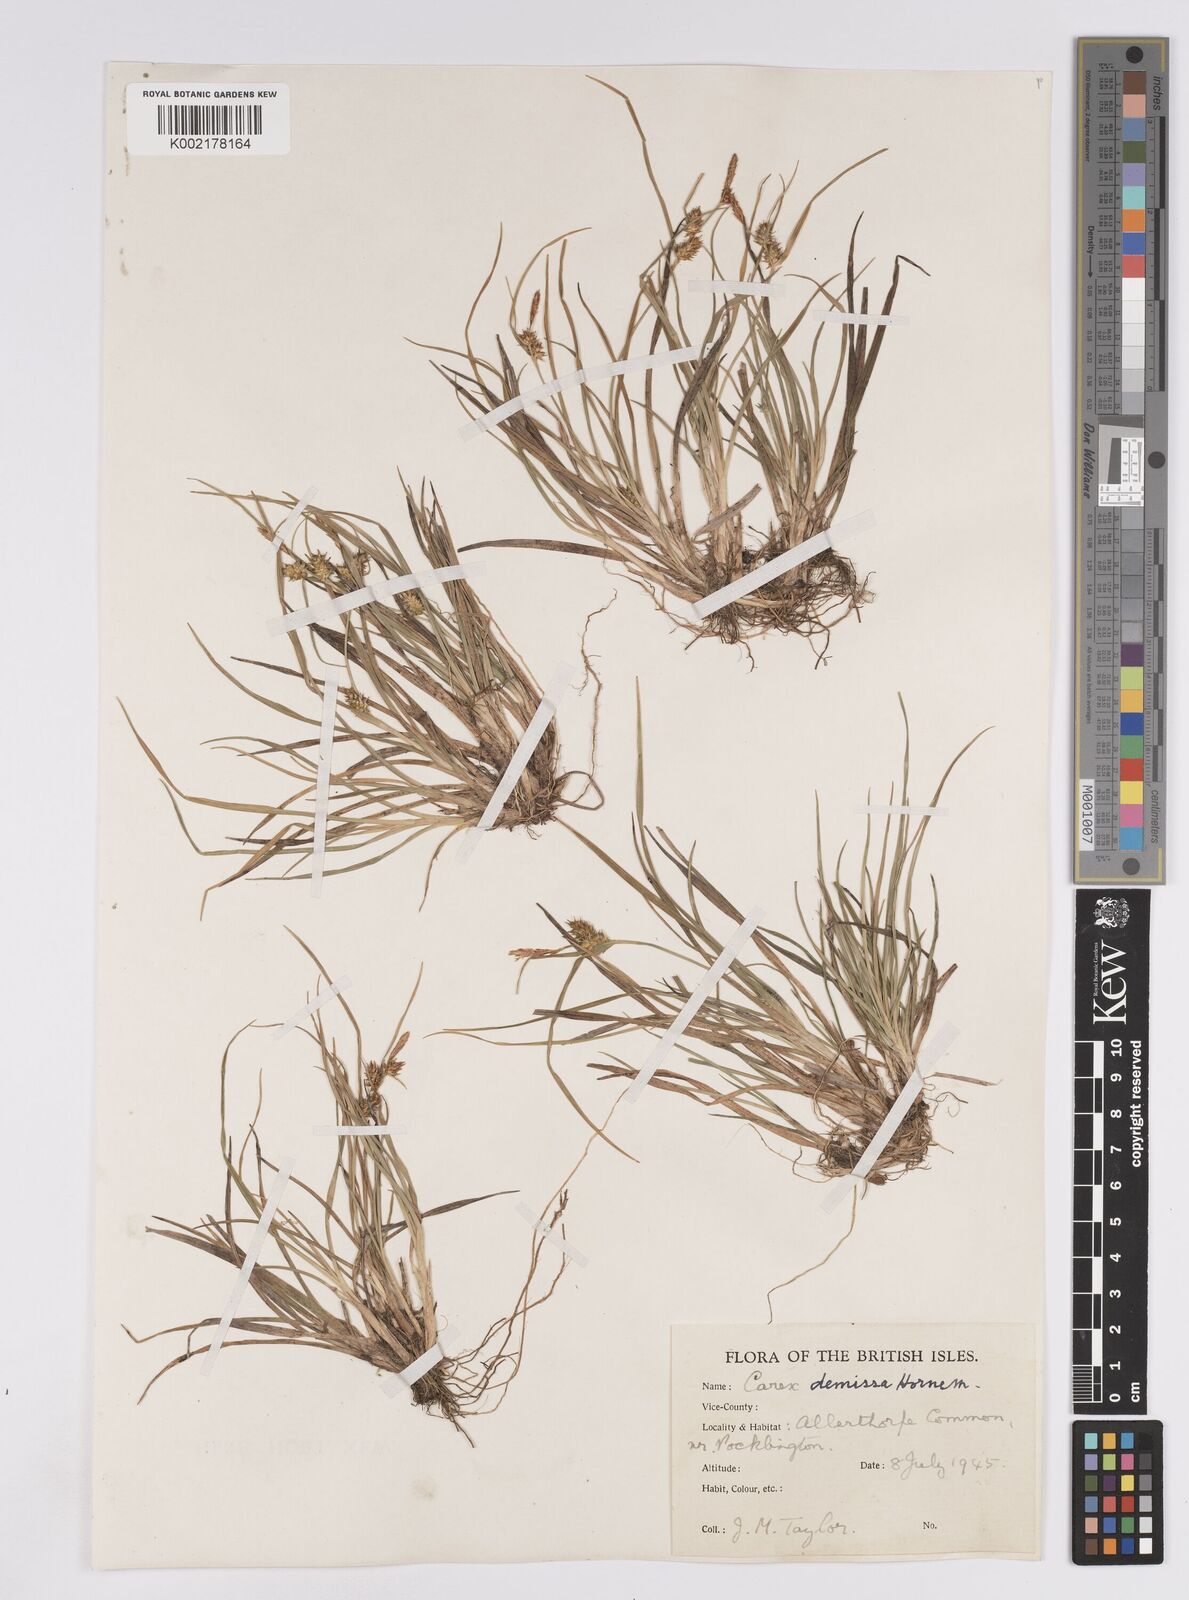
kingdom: Plantae
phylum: Tracheophyta
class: Liliopsida
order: Poales
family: Cyperaceae
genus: Carex
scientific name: Carex demissa
